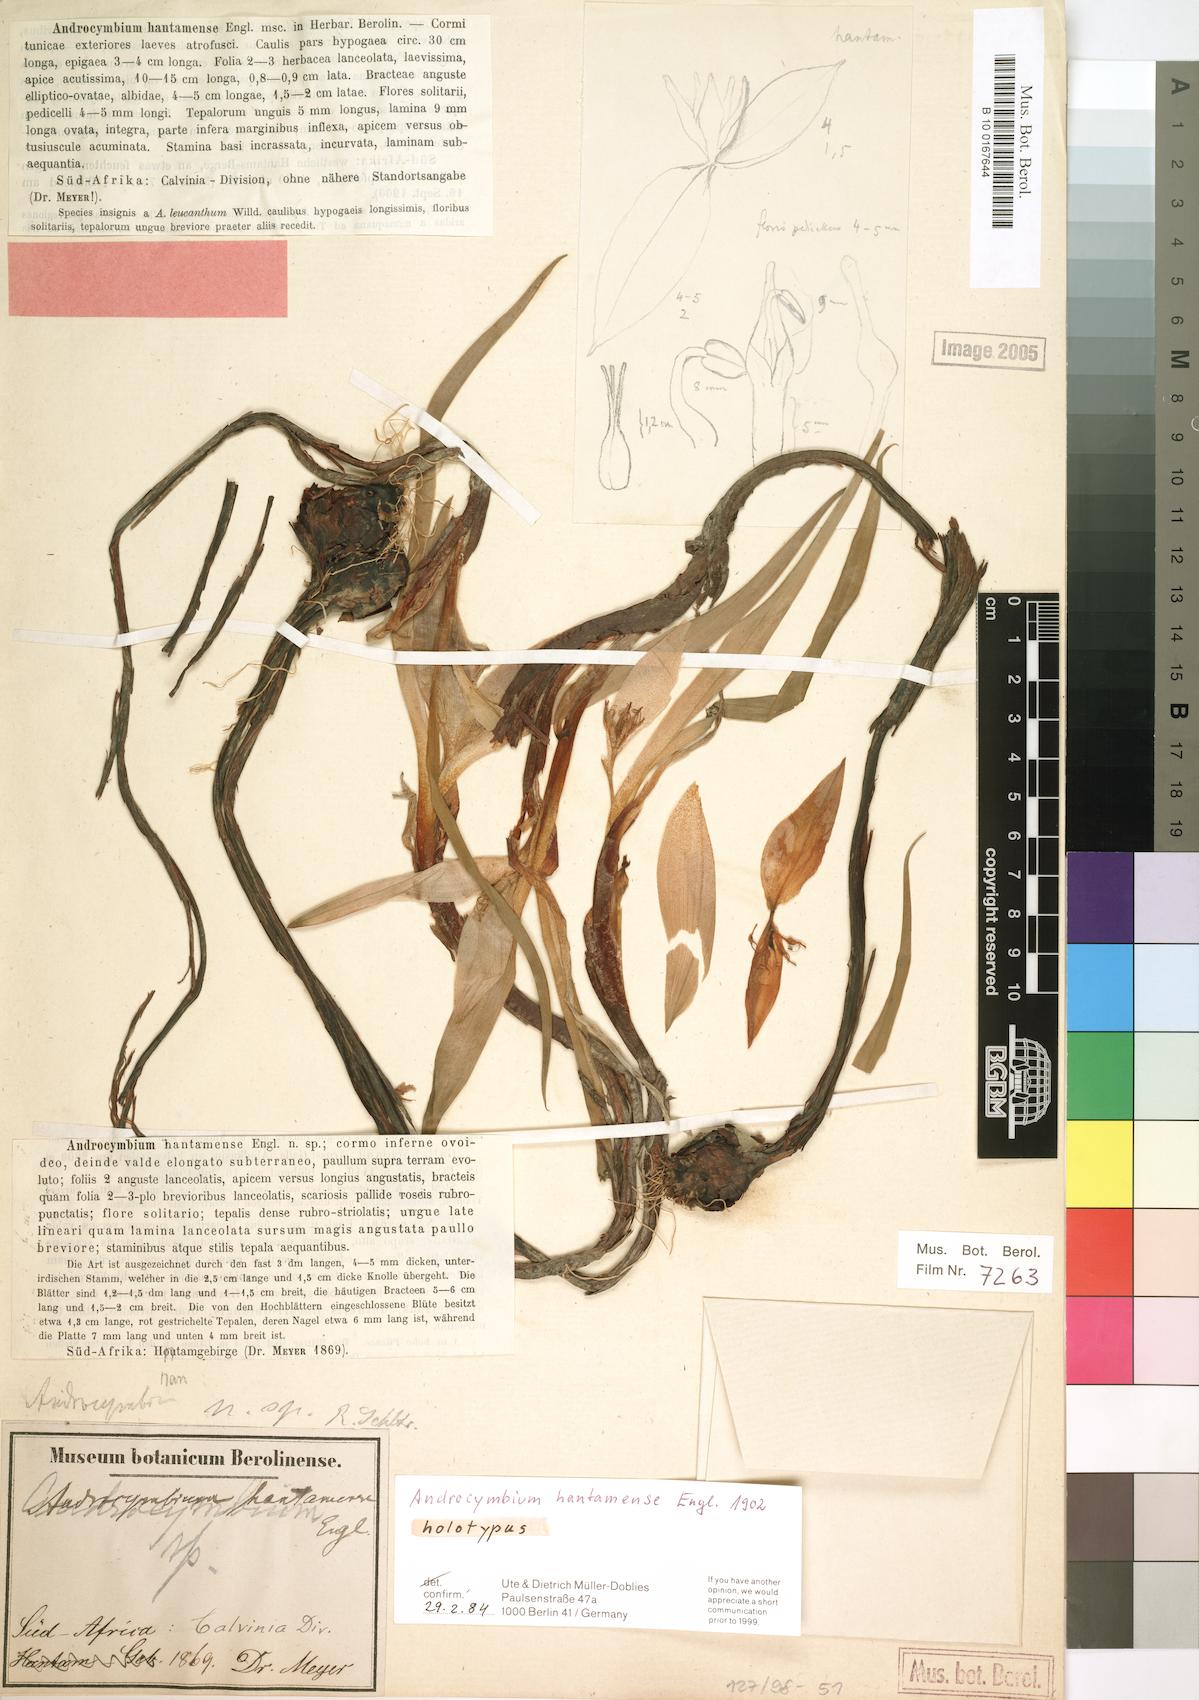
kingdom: Plantae
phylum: Tracheophyta
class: Liliopsida
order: Liliales
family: Colchicaceae
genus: Colchicum
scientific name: Colchicum Androcymbium hantamense
